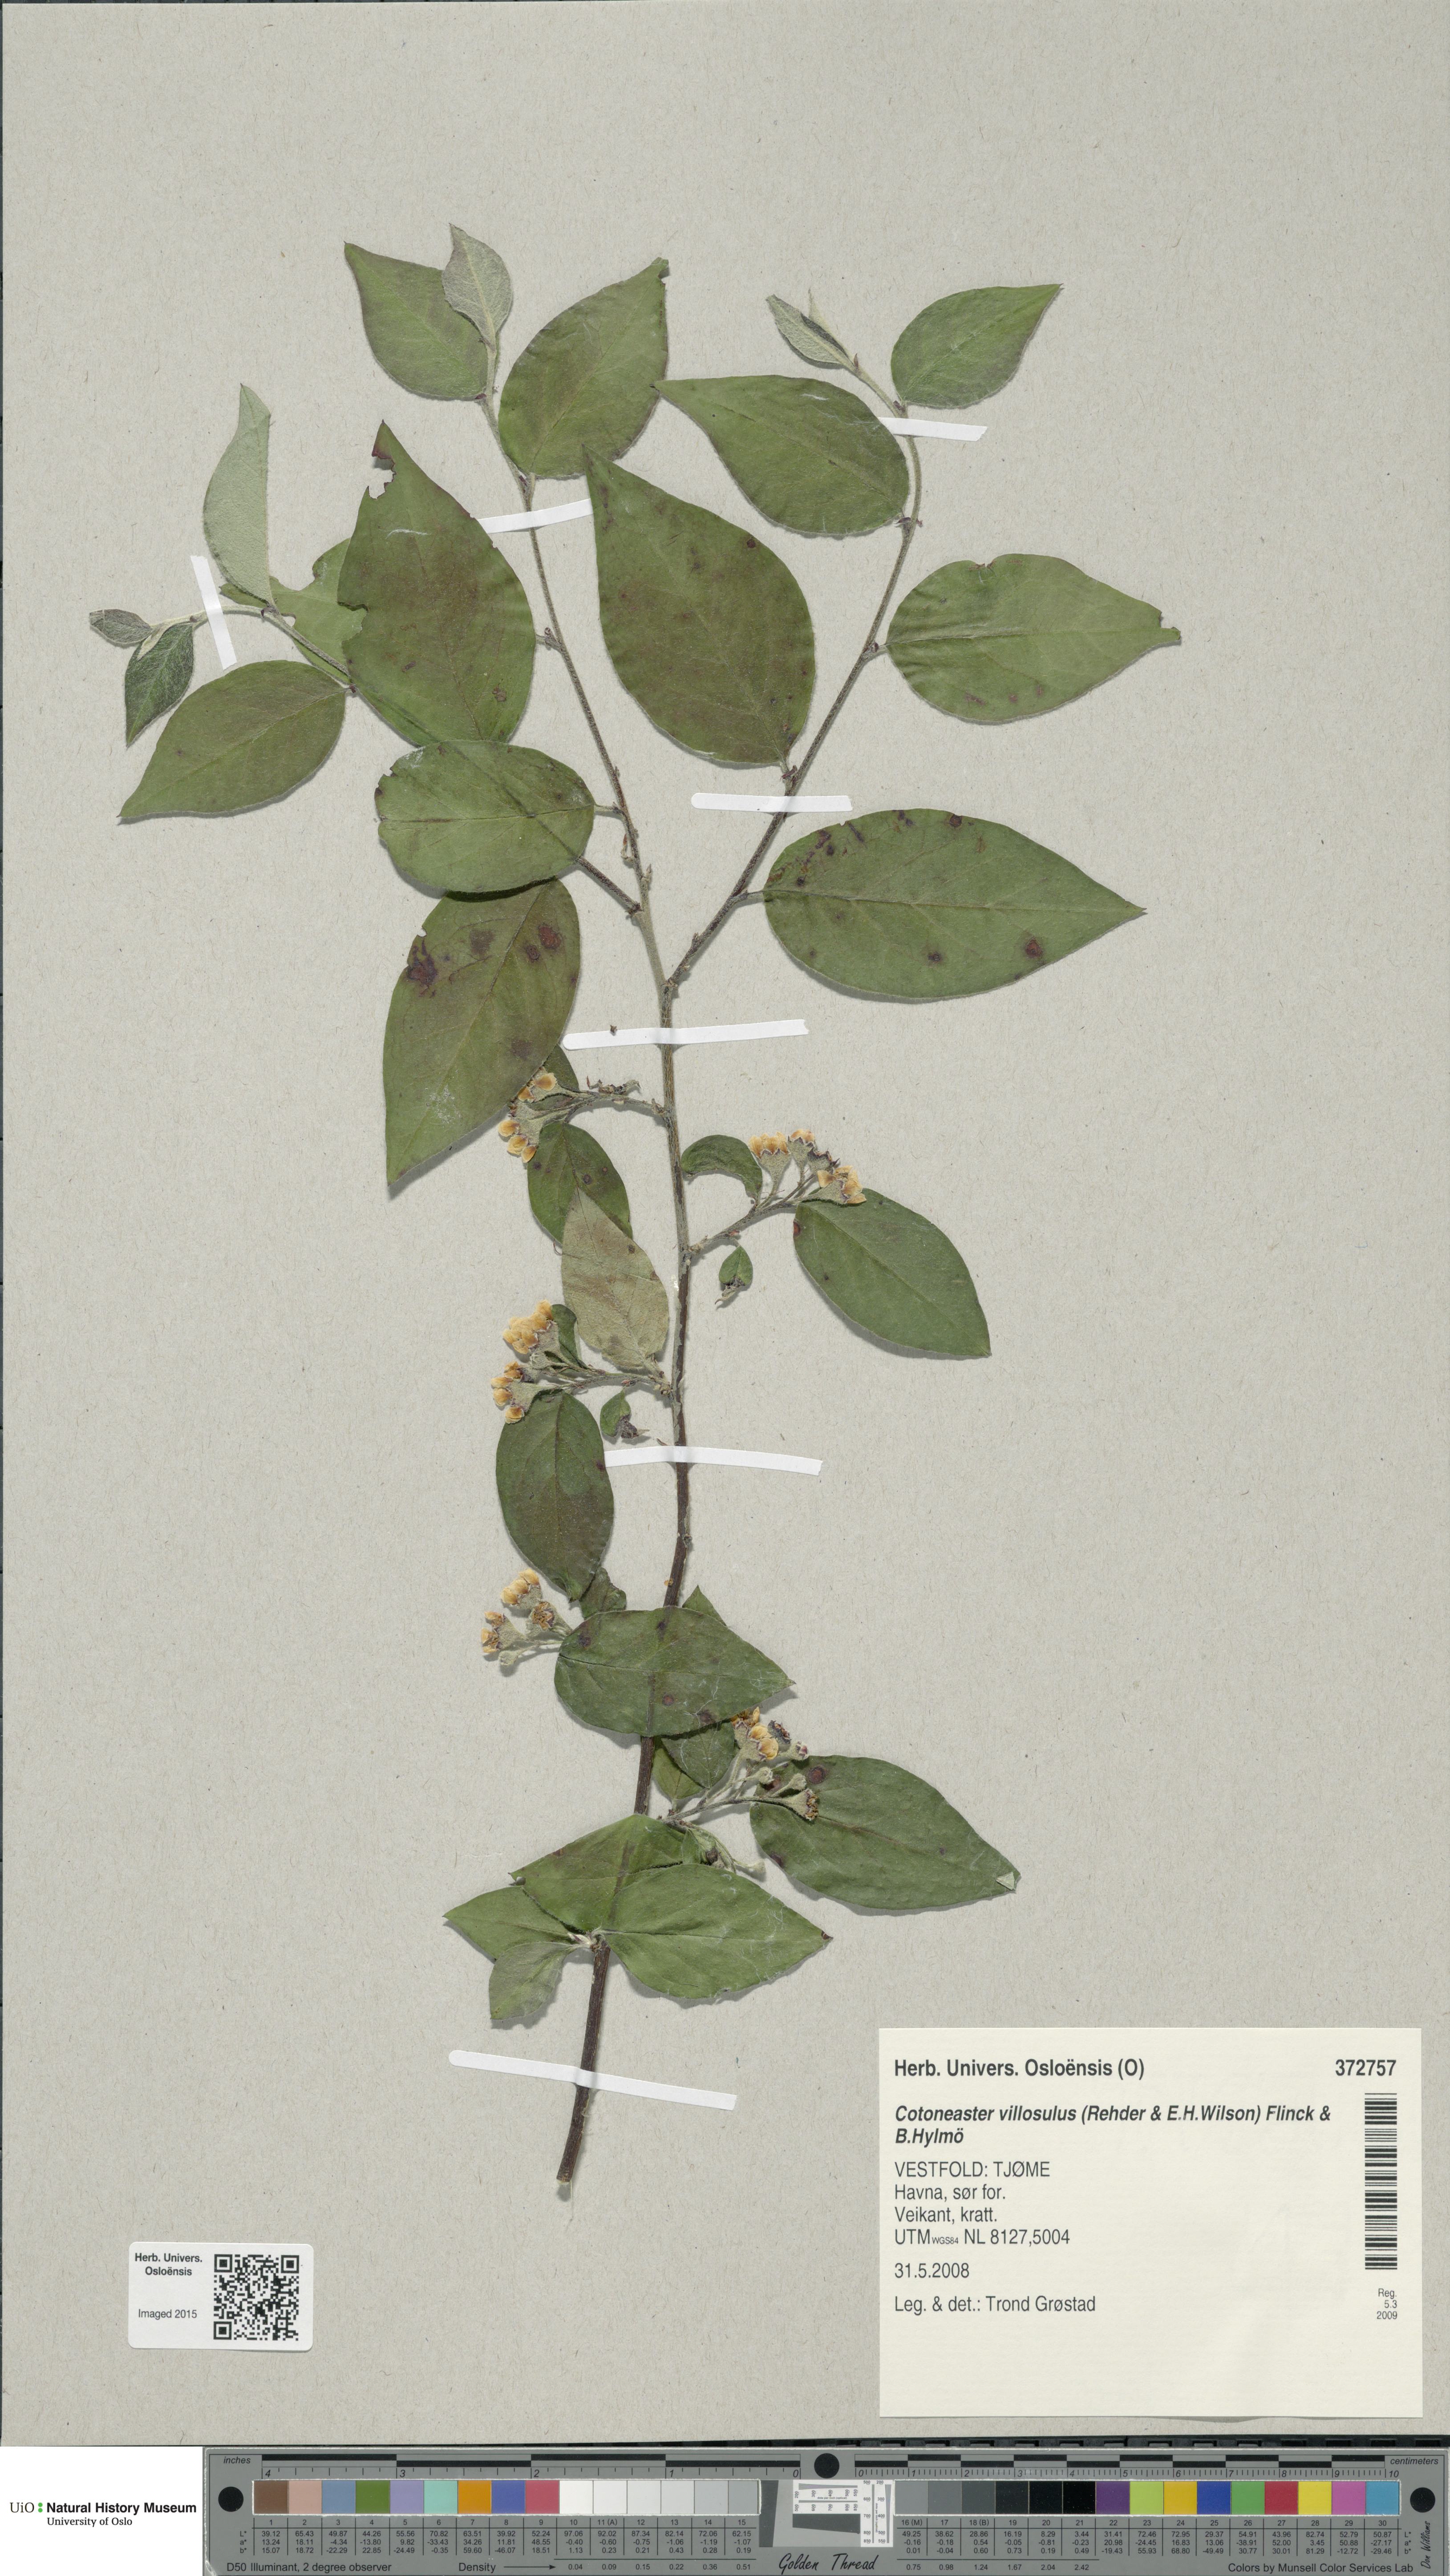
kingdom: Plantae
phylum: Tracheophyta
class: Magnoliopsida
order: Rosales
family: Rosaceae
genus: Cotoneaster
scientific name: Cotoneaster ambiguus
